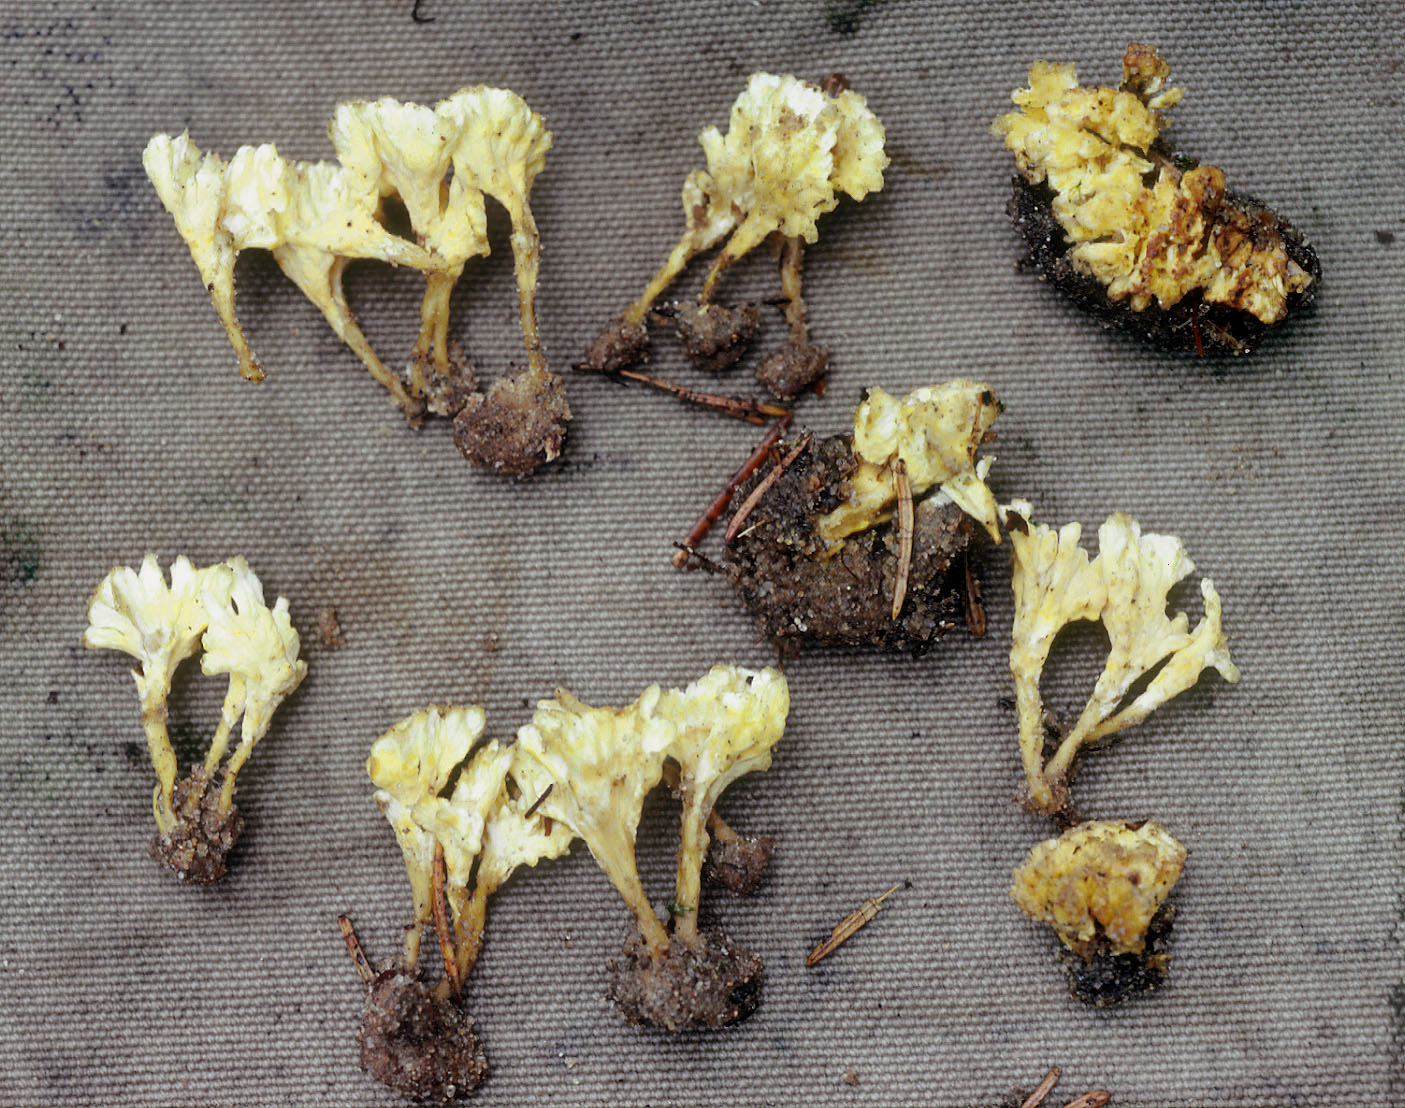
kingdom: Fungi
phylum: Basidiomycota
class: Agaricomycetes
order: Stereopsidales
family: Stereopsidaceae
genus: Stereopsis
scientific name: Stereopsis vitellina
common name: stilklædersvamp
